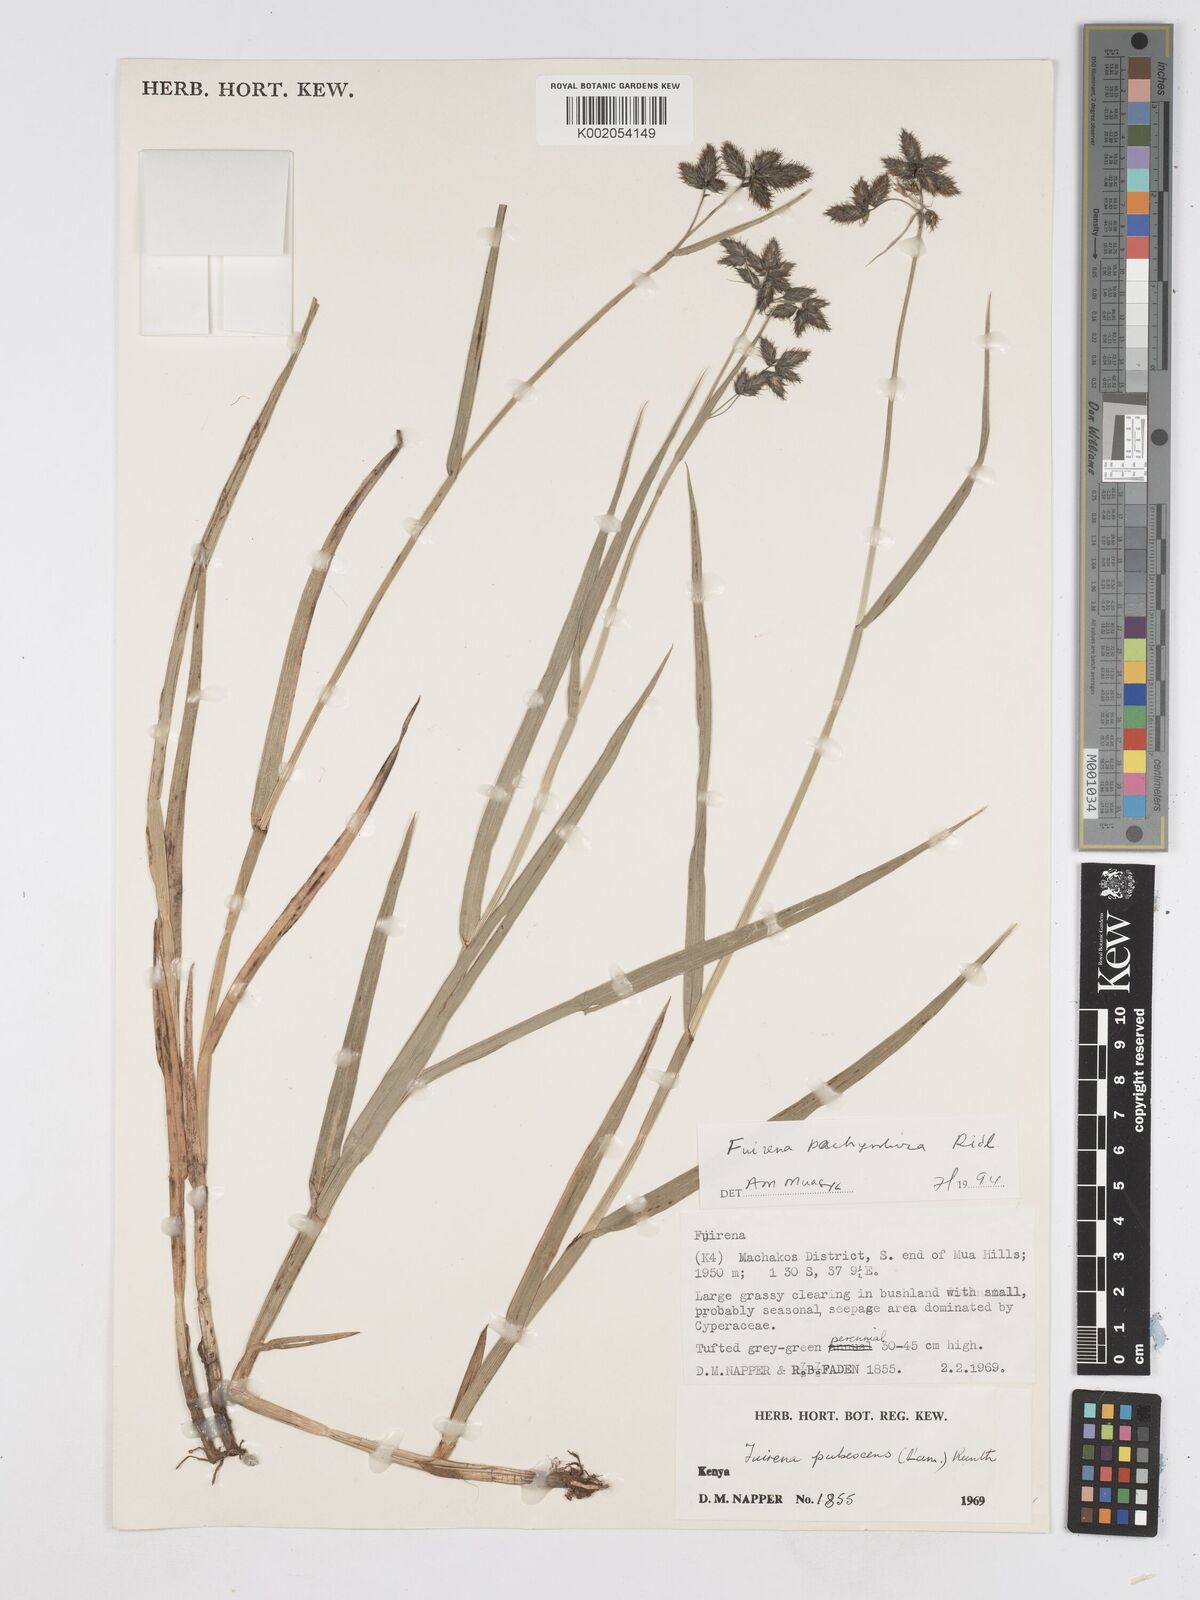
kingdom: Plantae
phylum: Tracheophyta
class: Liliopsida
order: Poales
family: Cyperaceae
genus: Fuirena
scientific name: Fuirena pachyrrhiza
